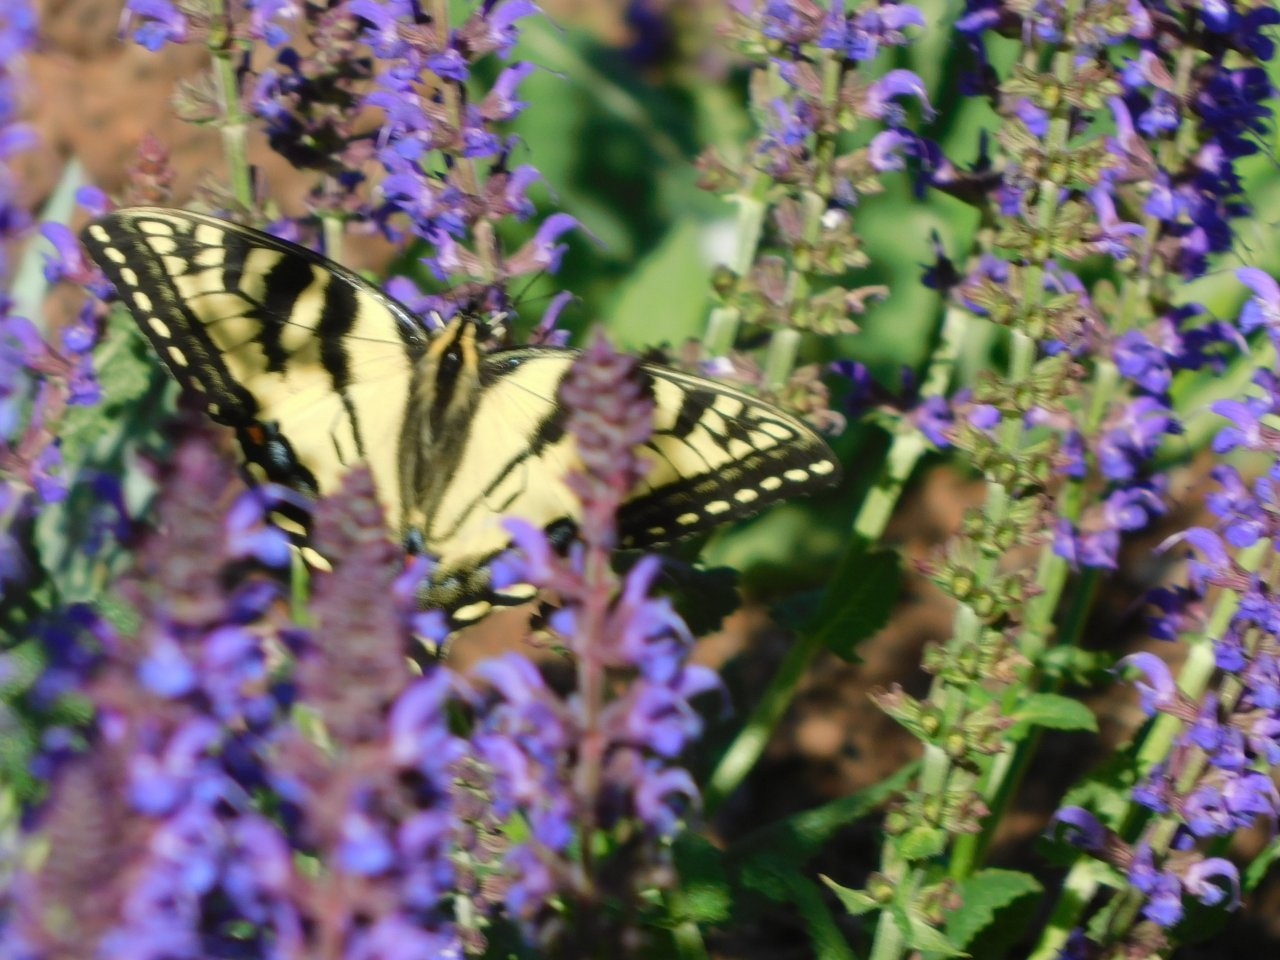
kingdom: Animalia
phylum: Arthropoda
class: Insecta
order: Lepidoptera
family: Papilionidae
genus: Pterourus
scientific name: Pterourus canadensis
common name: Canadian Tiger Swallowtail
